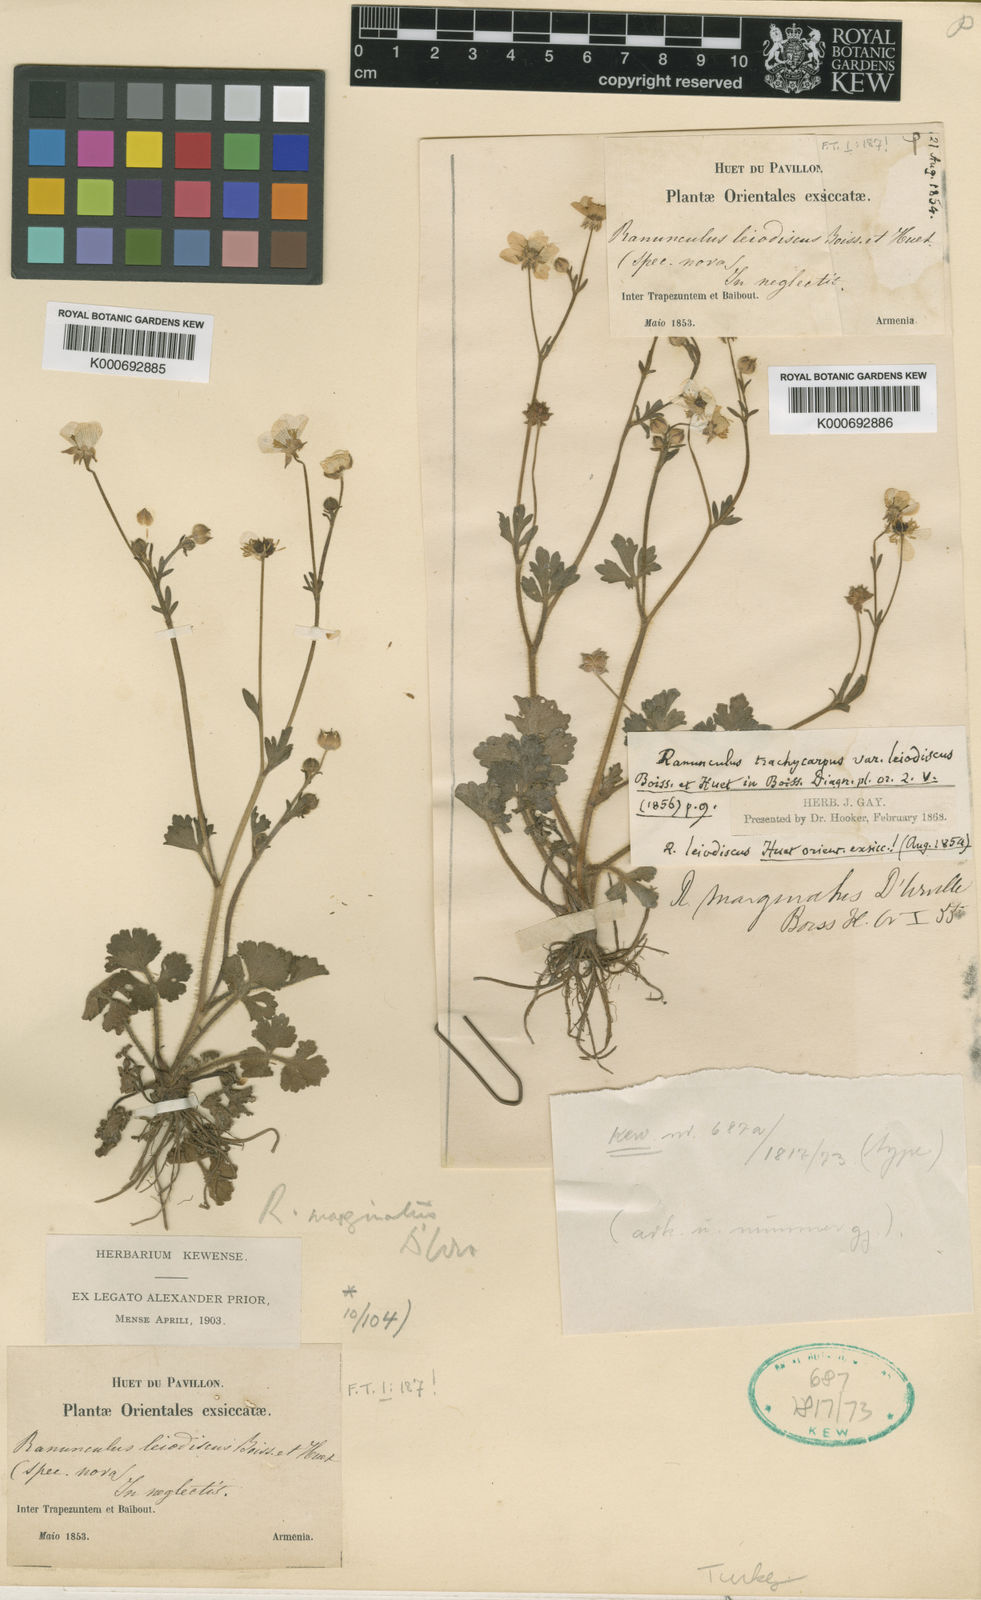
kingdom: Plantae
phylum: Tracheophyta
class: Magnoliopsida
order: Ranunculales
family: Ranunculaceae
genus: Ranunculus
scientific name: Ranunculus marginatus
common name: St. martin's buttercup
